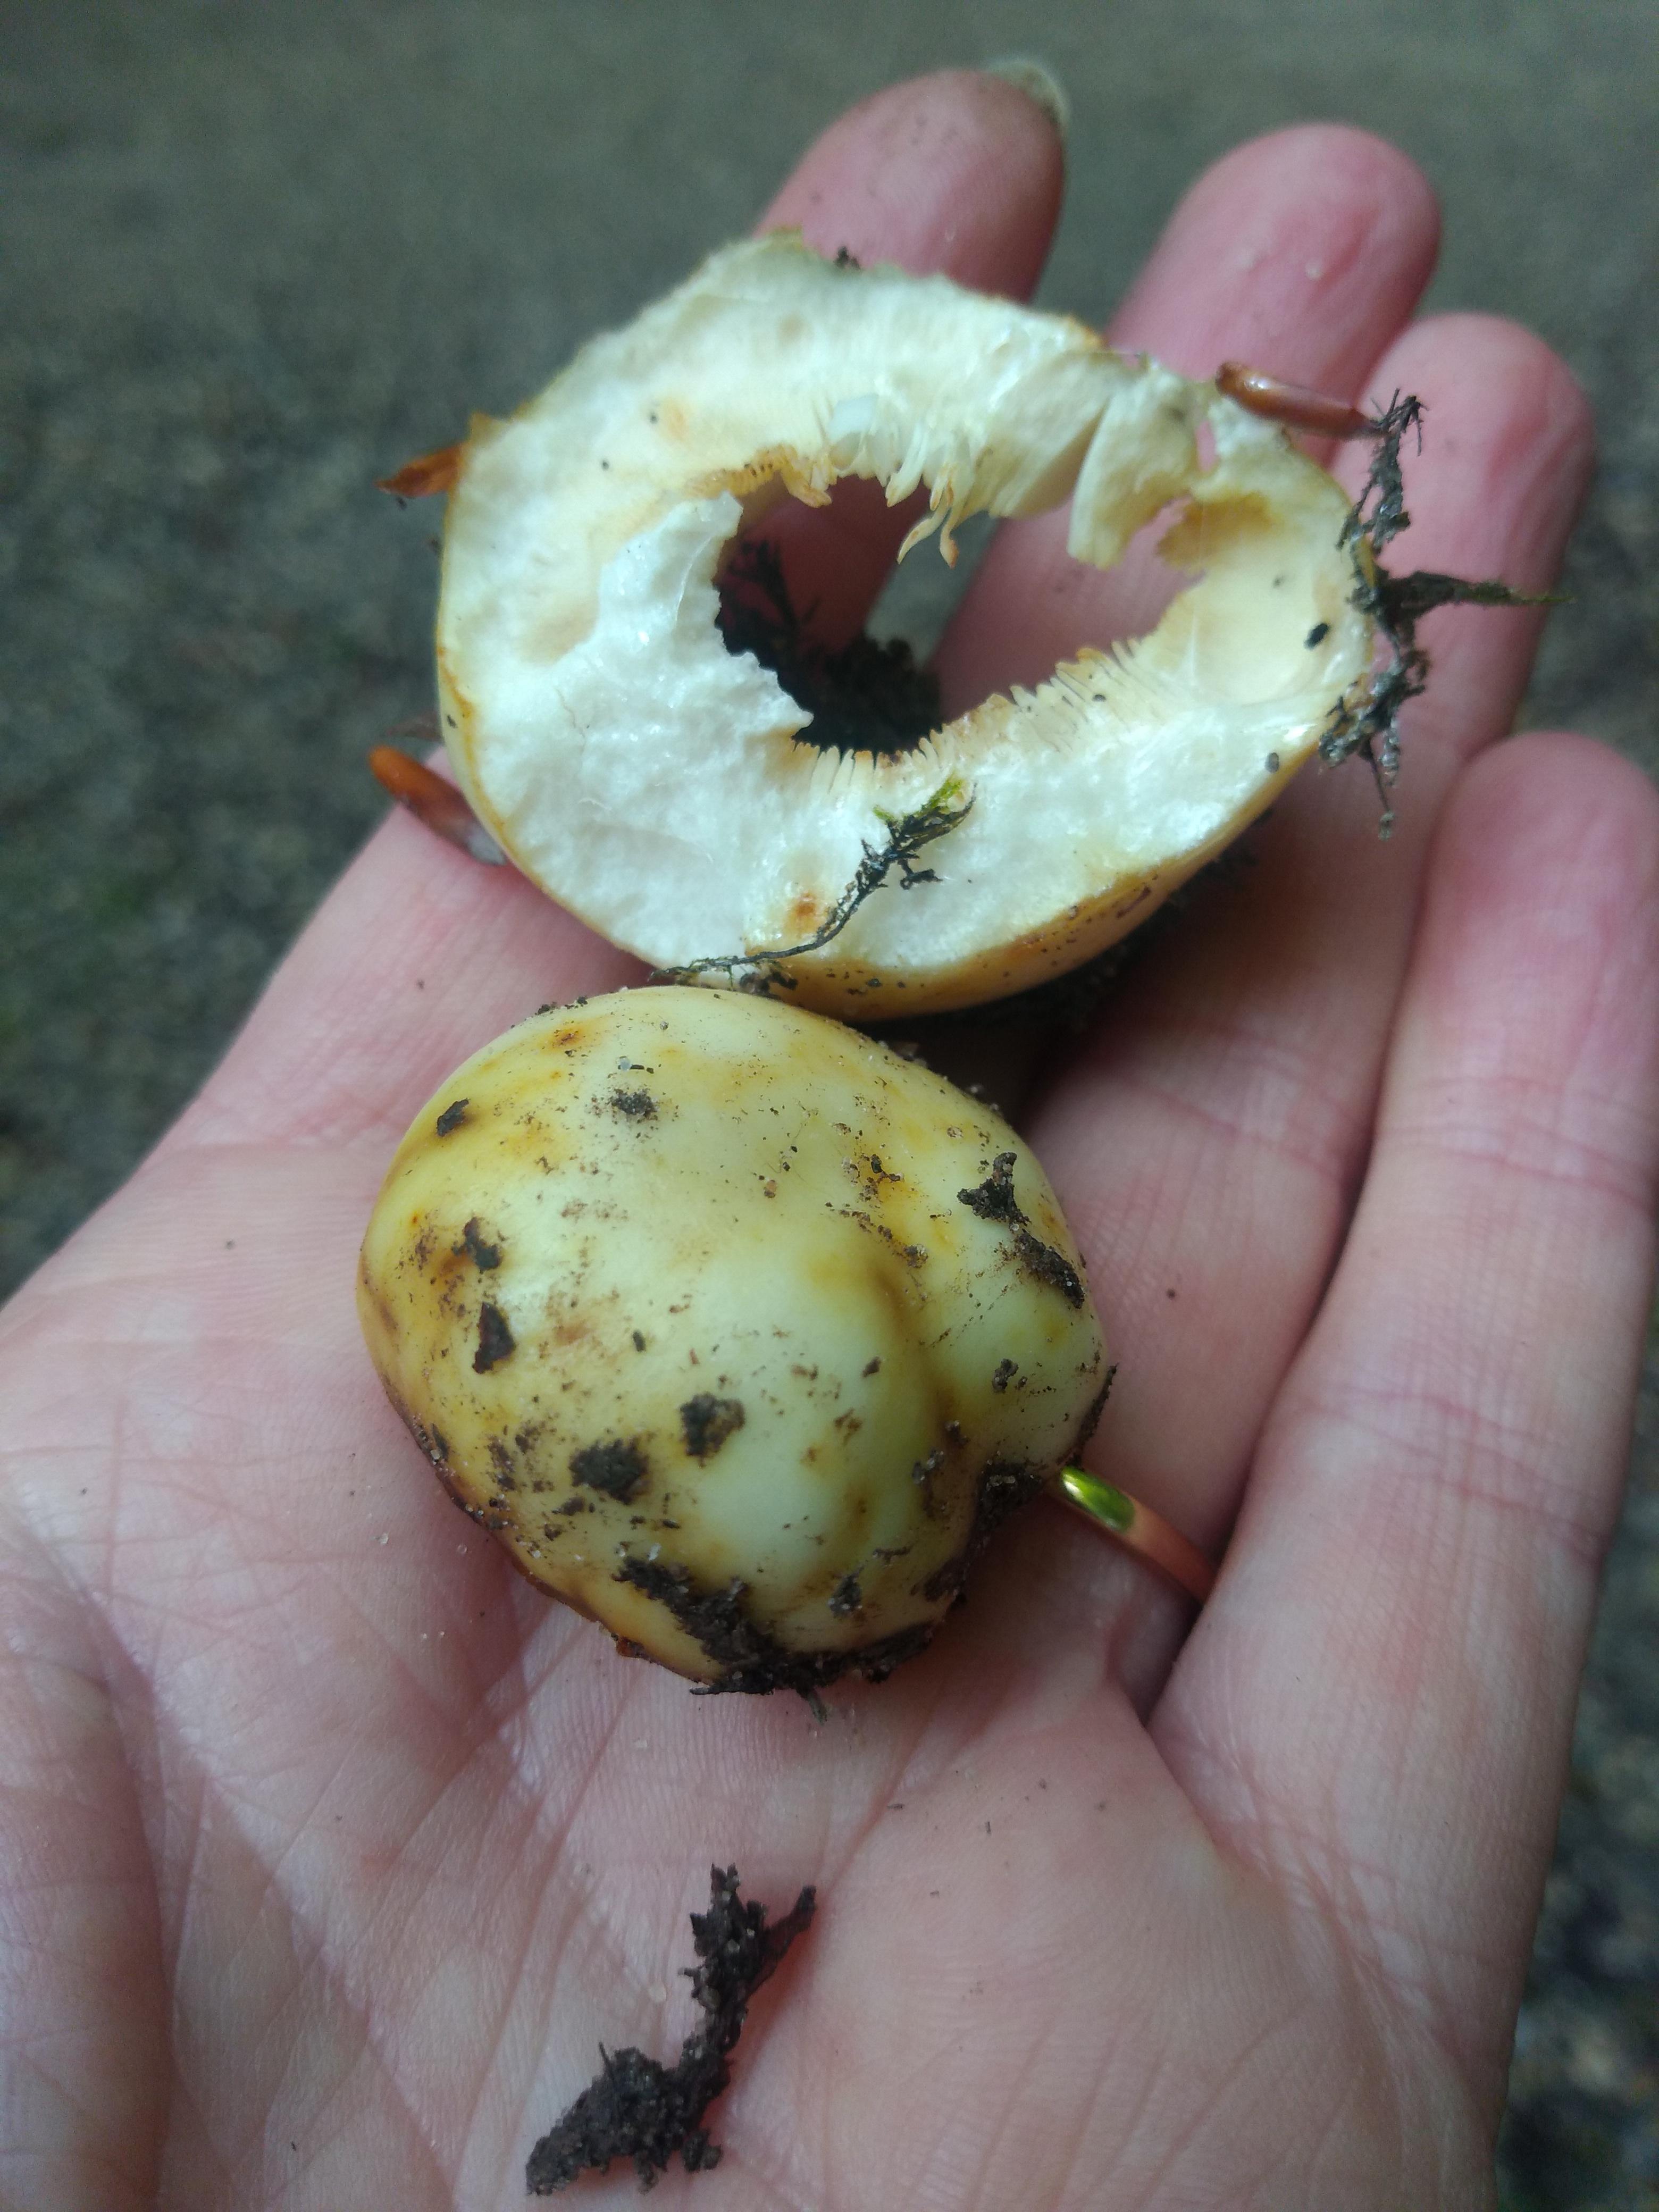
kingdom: Fungi
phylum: Basidiomycota
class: Agaricomycetes
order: Russulales
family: Russulaceae
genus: Russula
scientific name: Russula
